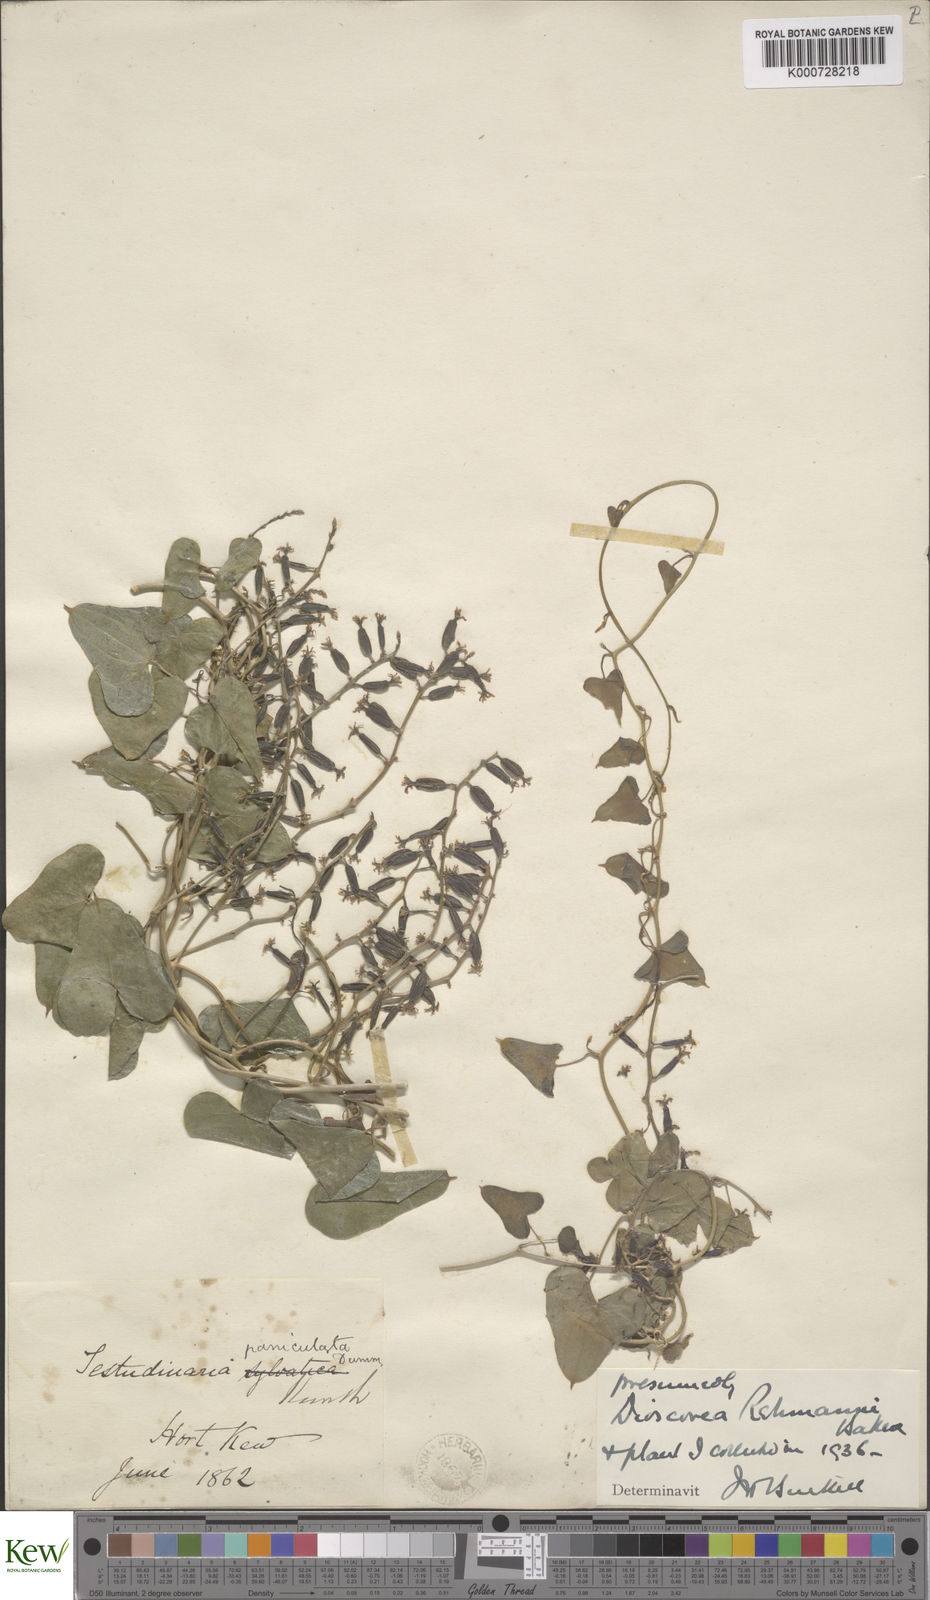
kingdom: Plantae
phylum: Tracheophyta
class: Liliopsida
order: Dioscoreales
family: Dioscoreaceae
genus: Dioscorea
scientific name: Dioscorea sylvatica
